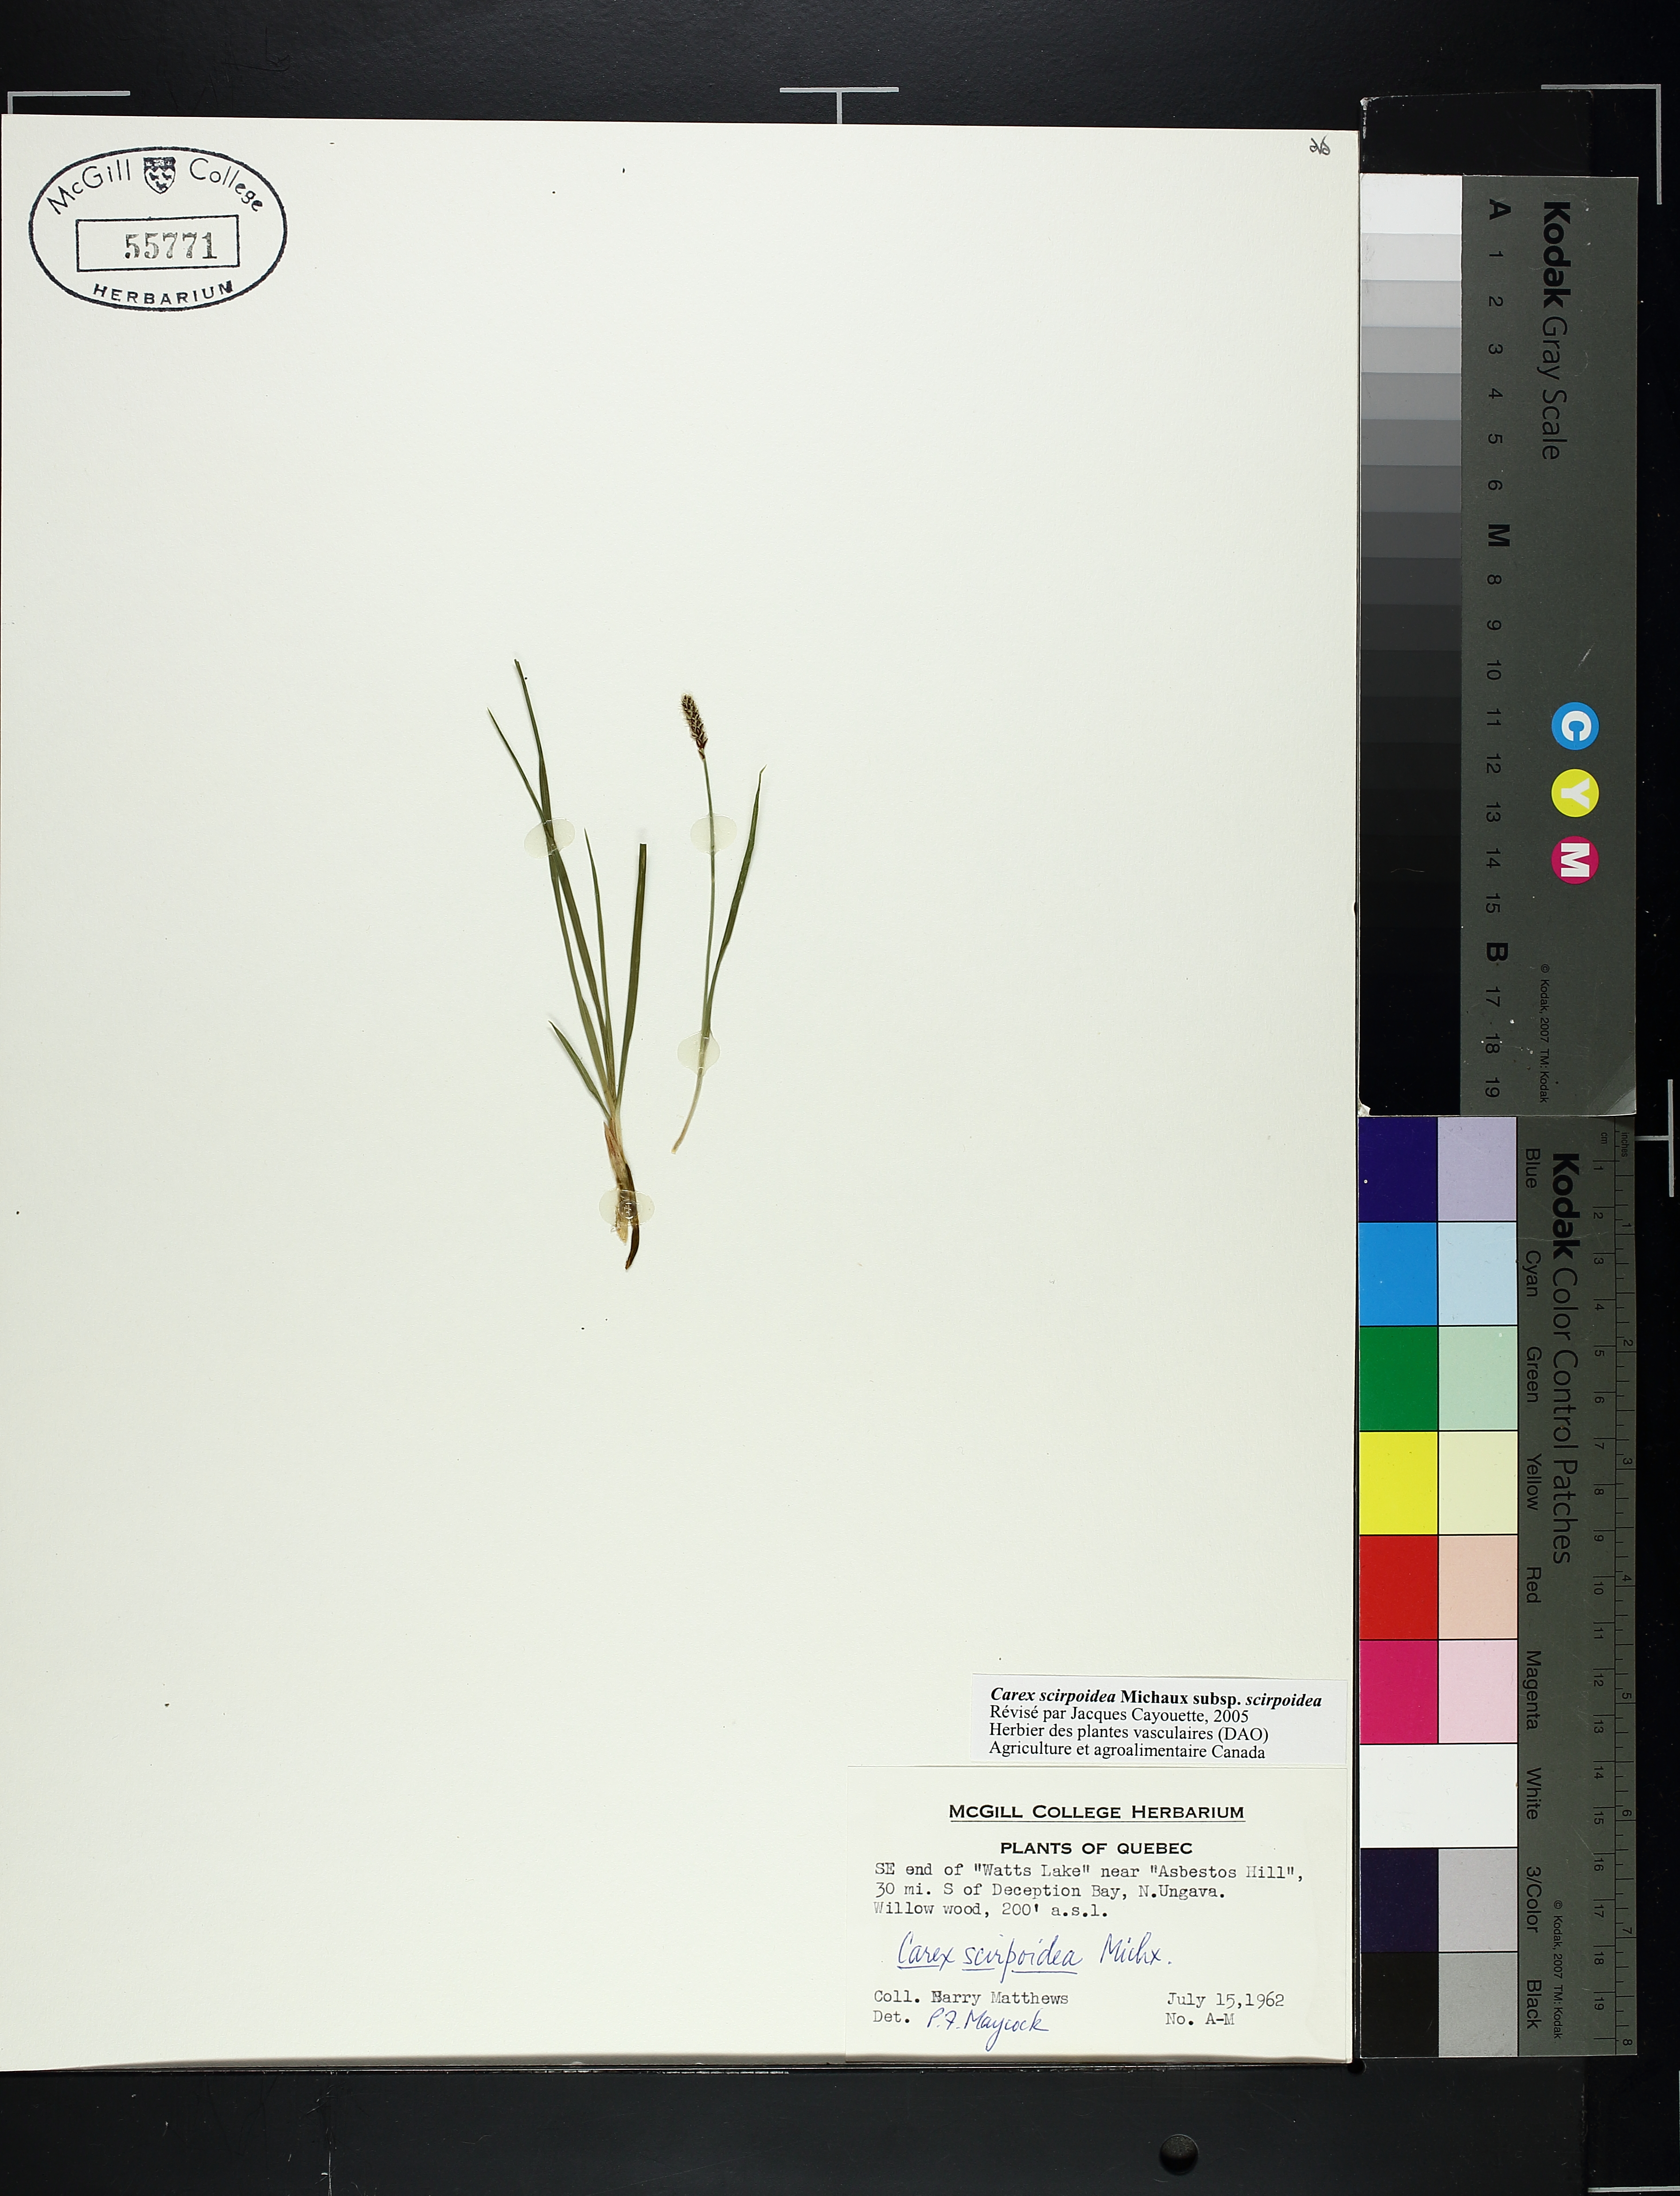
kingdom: Plantae
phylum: Tracheophyta
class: Liliopsida
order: Poales
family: Cyperaceae
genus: Carex
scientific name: Carex scirpoidea
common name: Canada single-spike sedge
